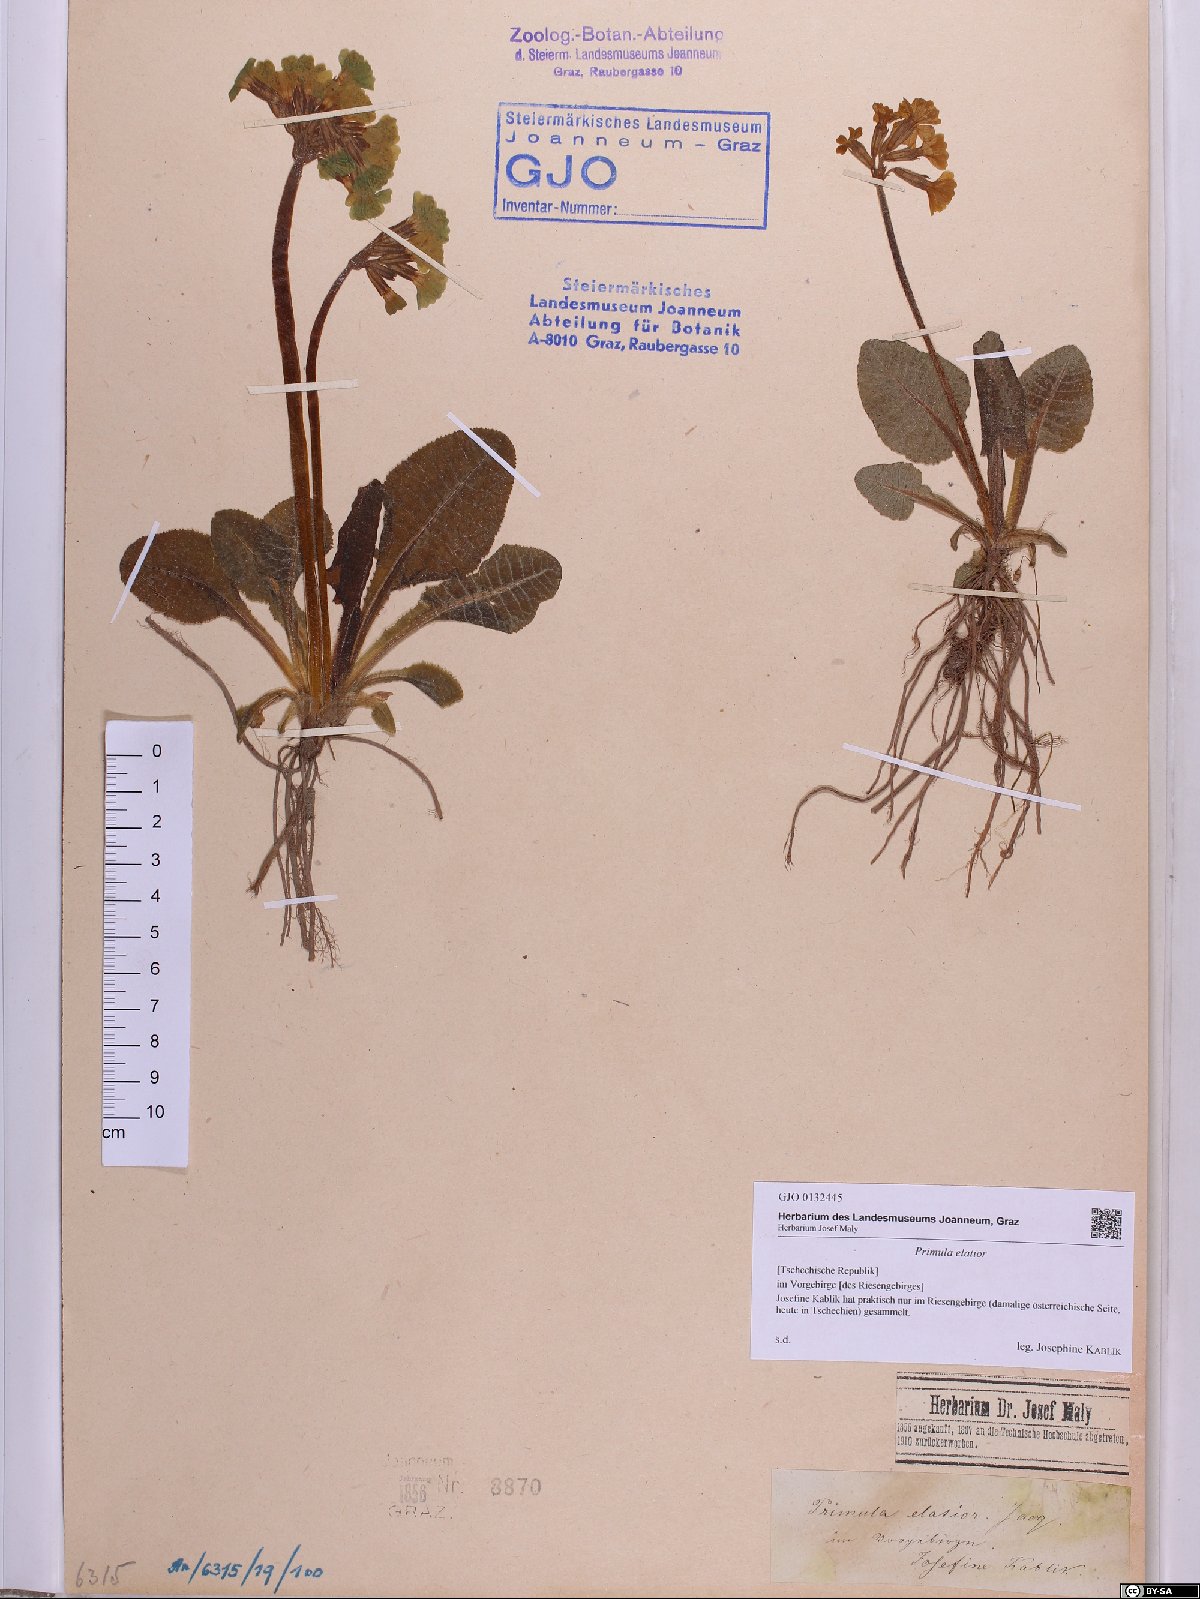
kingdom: Plantae
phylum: Tracheophyta
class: Magnoliopsida
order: Ericales
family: Primulaceae
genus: Primula
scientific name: Primula elatior
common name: Oxlip
